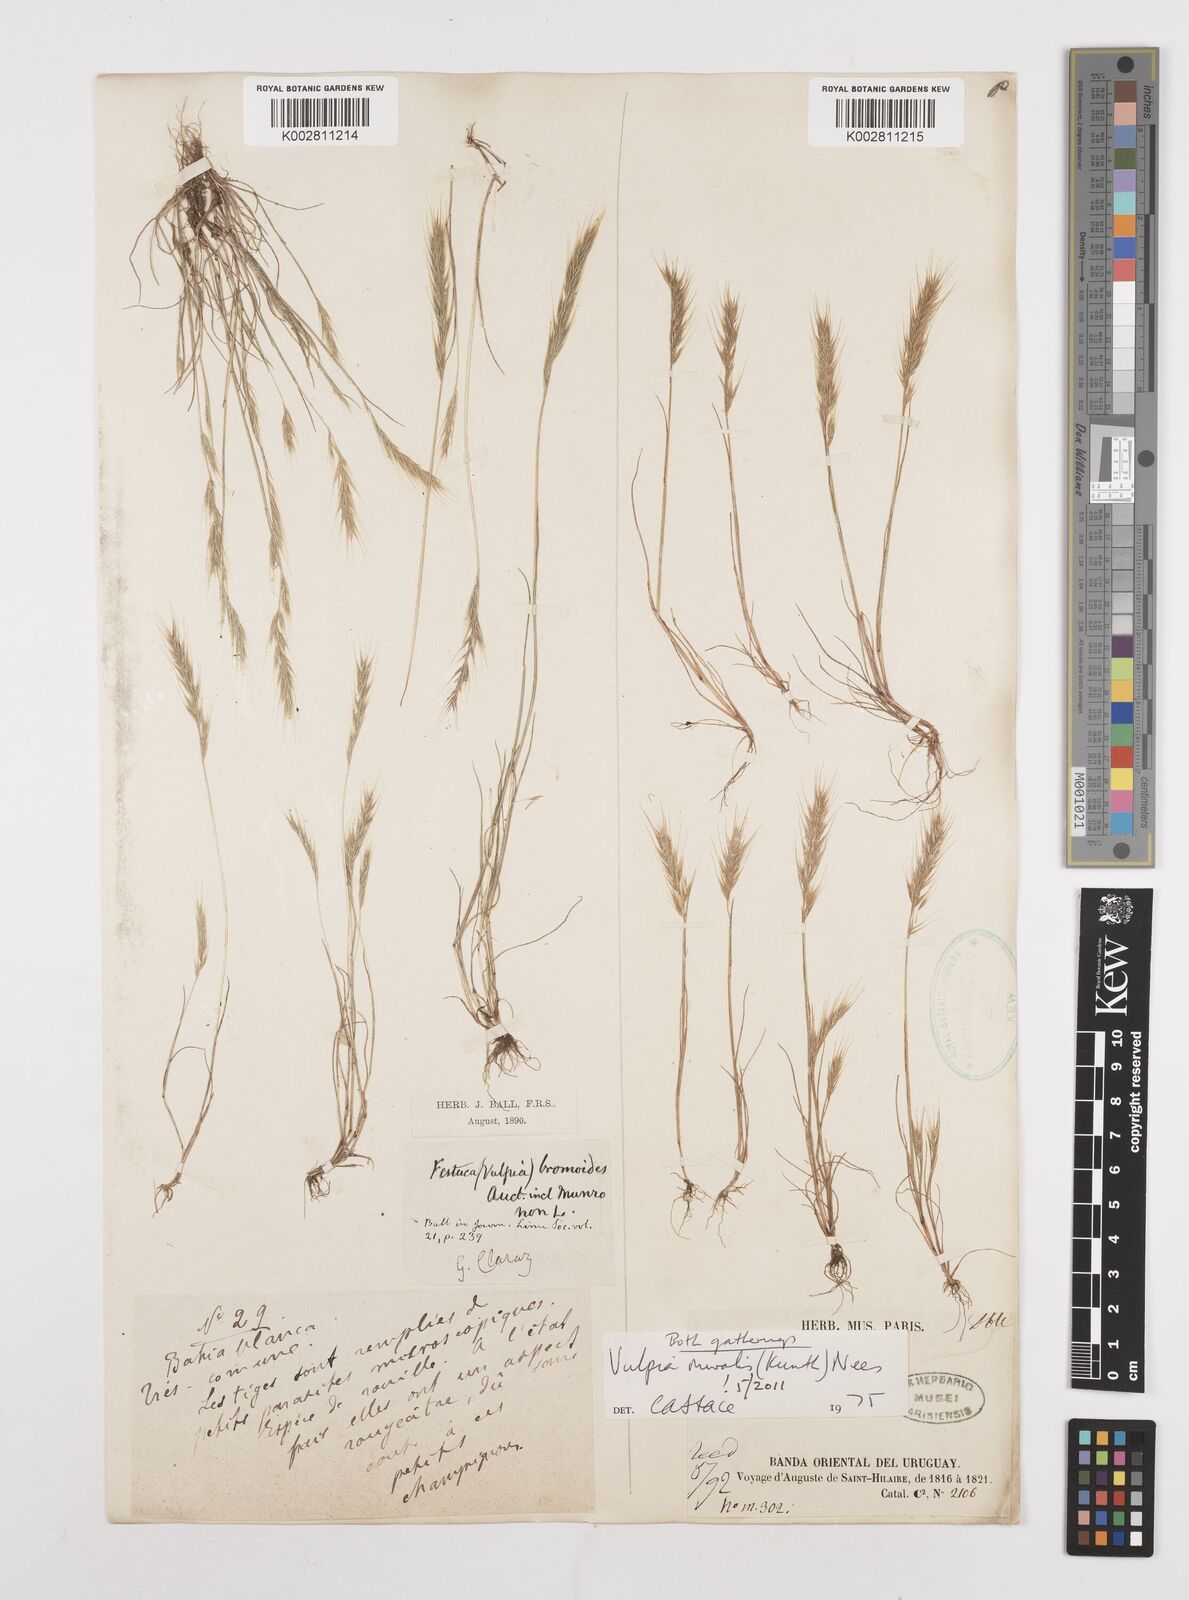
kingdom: Plantae
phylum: Tracheophyta
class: Liliopsida
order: Poales
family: Poaceae
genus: Festuca
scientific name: Festuca muralis
